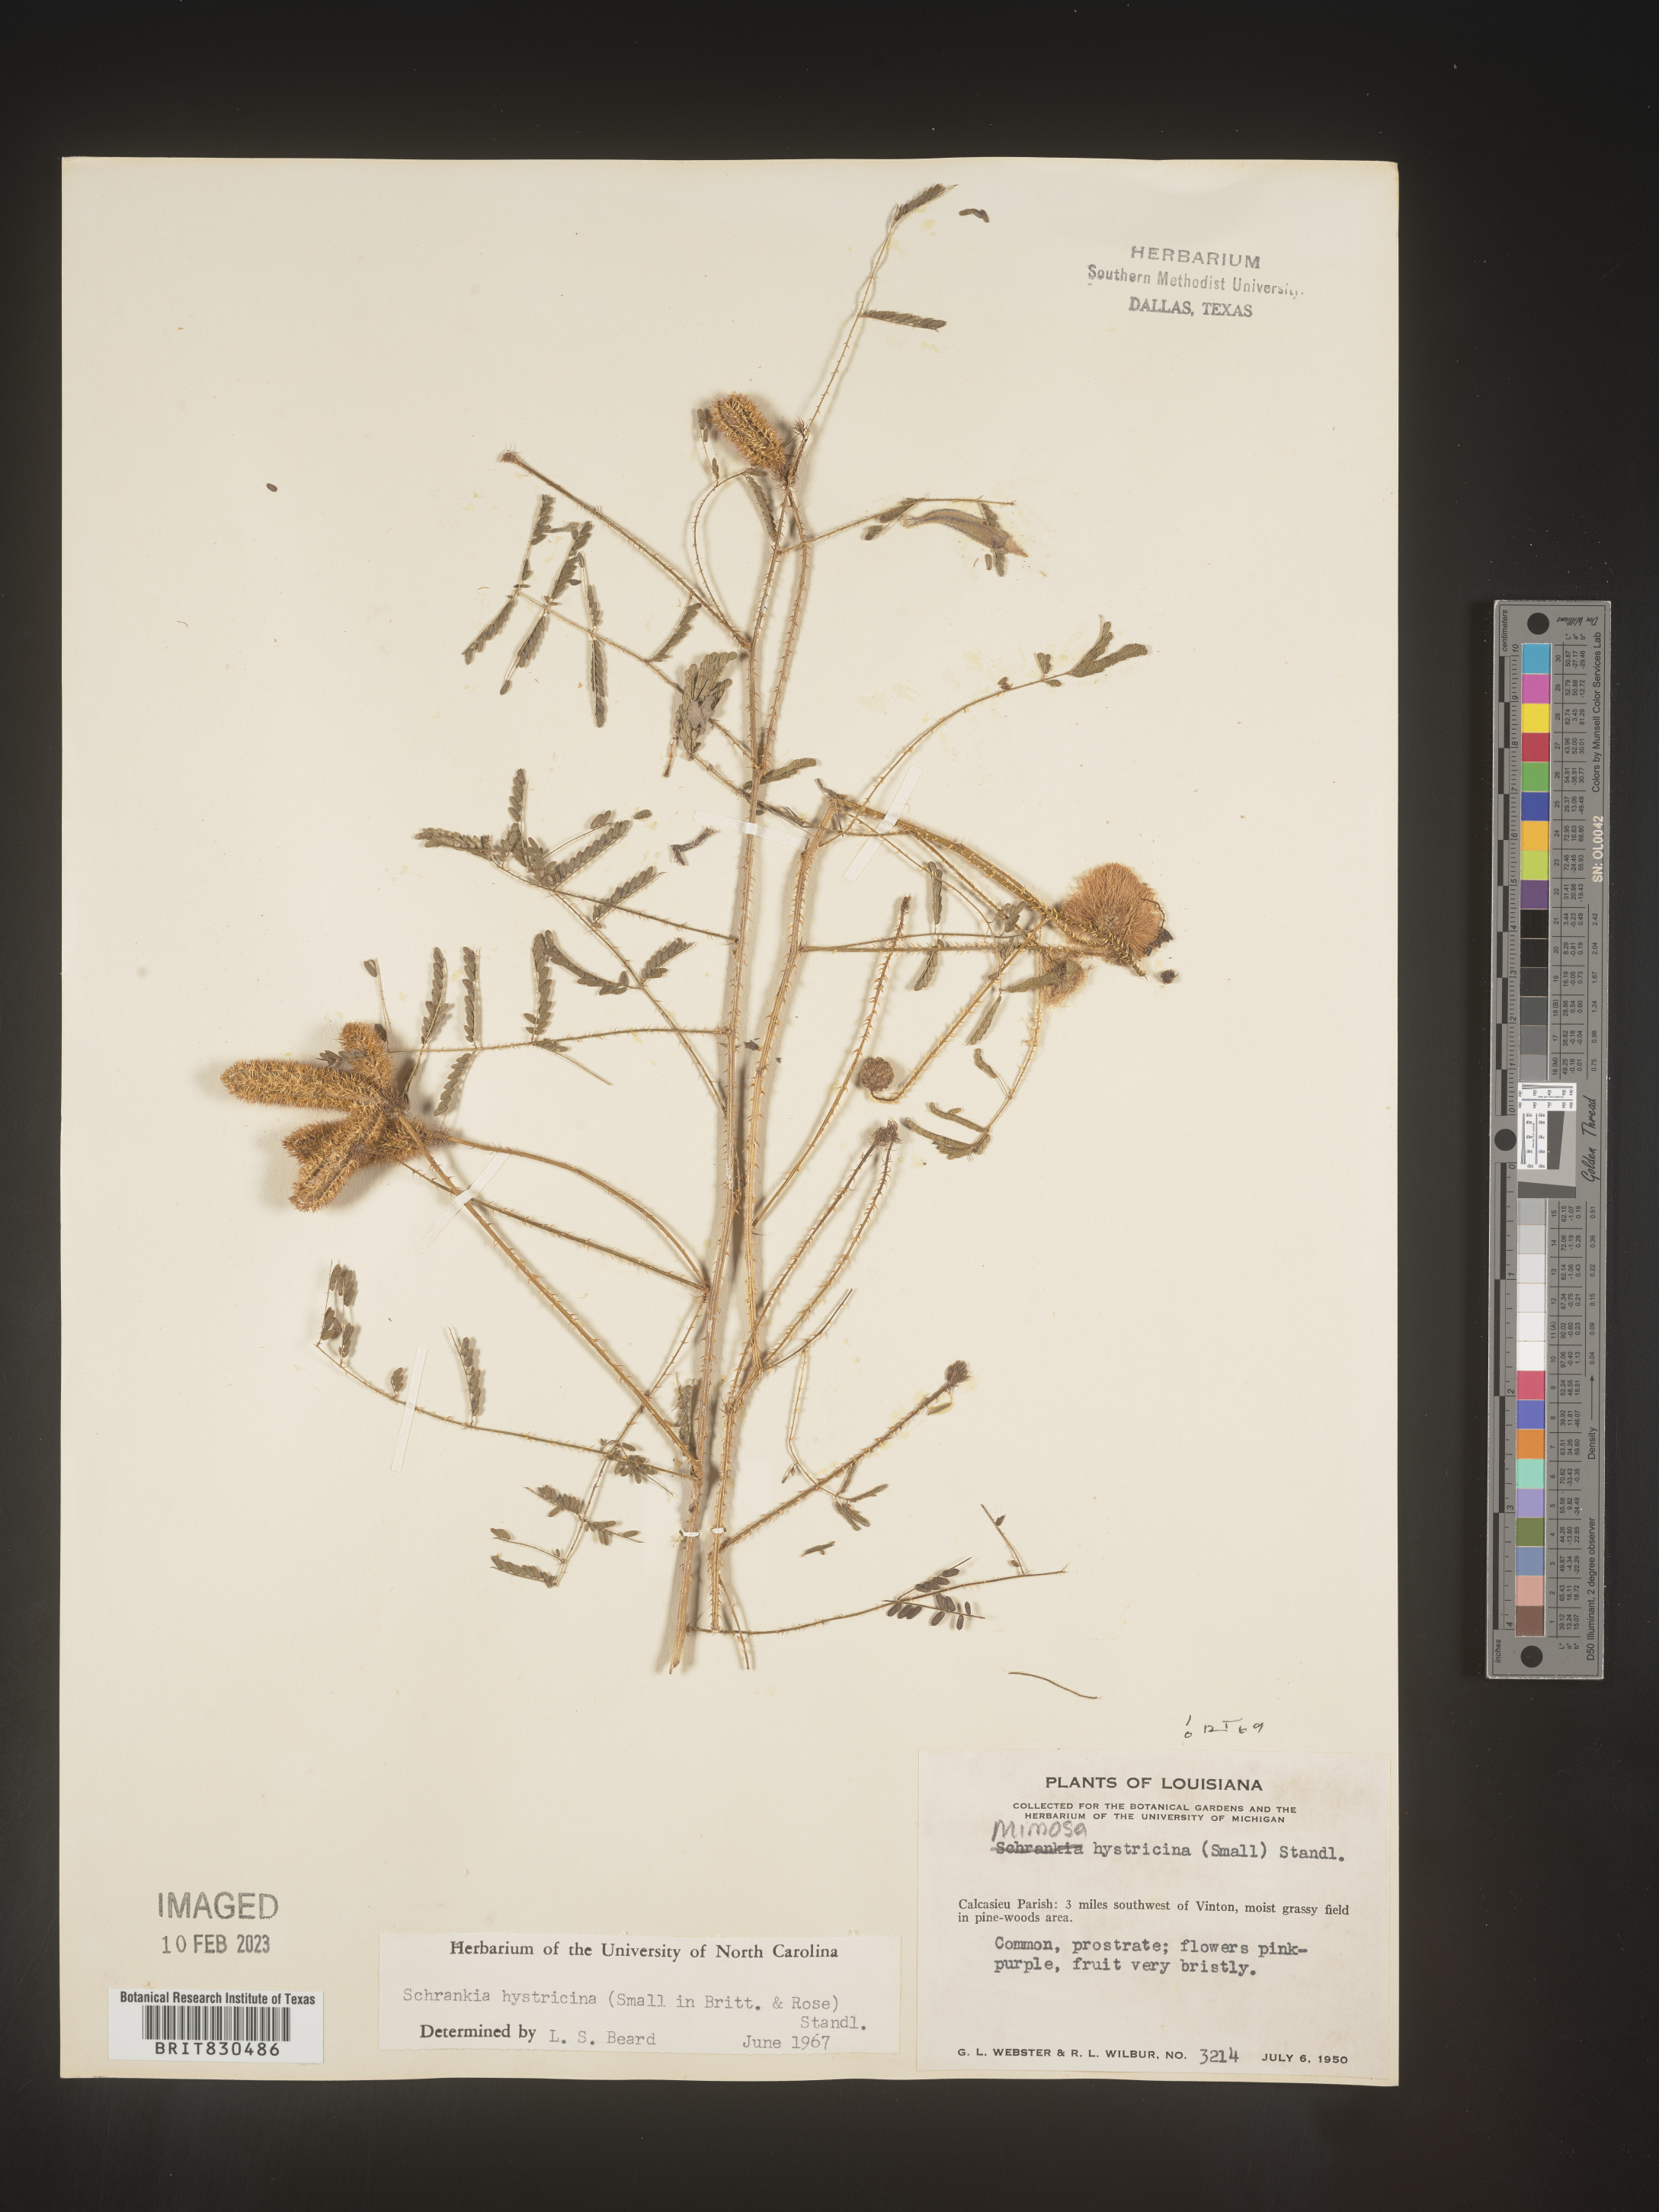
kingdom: Plantae
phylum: Tracheophyta
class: Magnoliopsida
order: Fabales
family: Fabaceae
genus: Mimosa
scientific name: Mimosa hystricina
